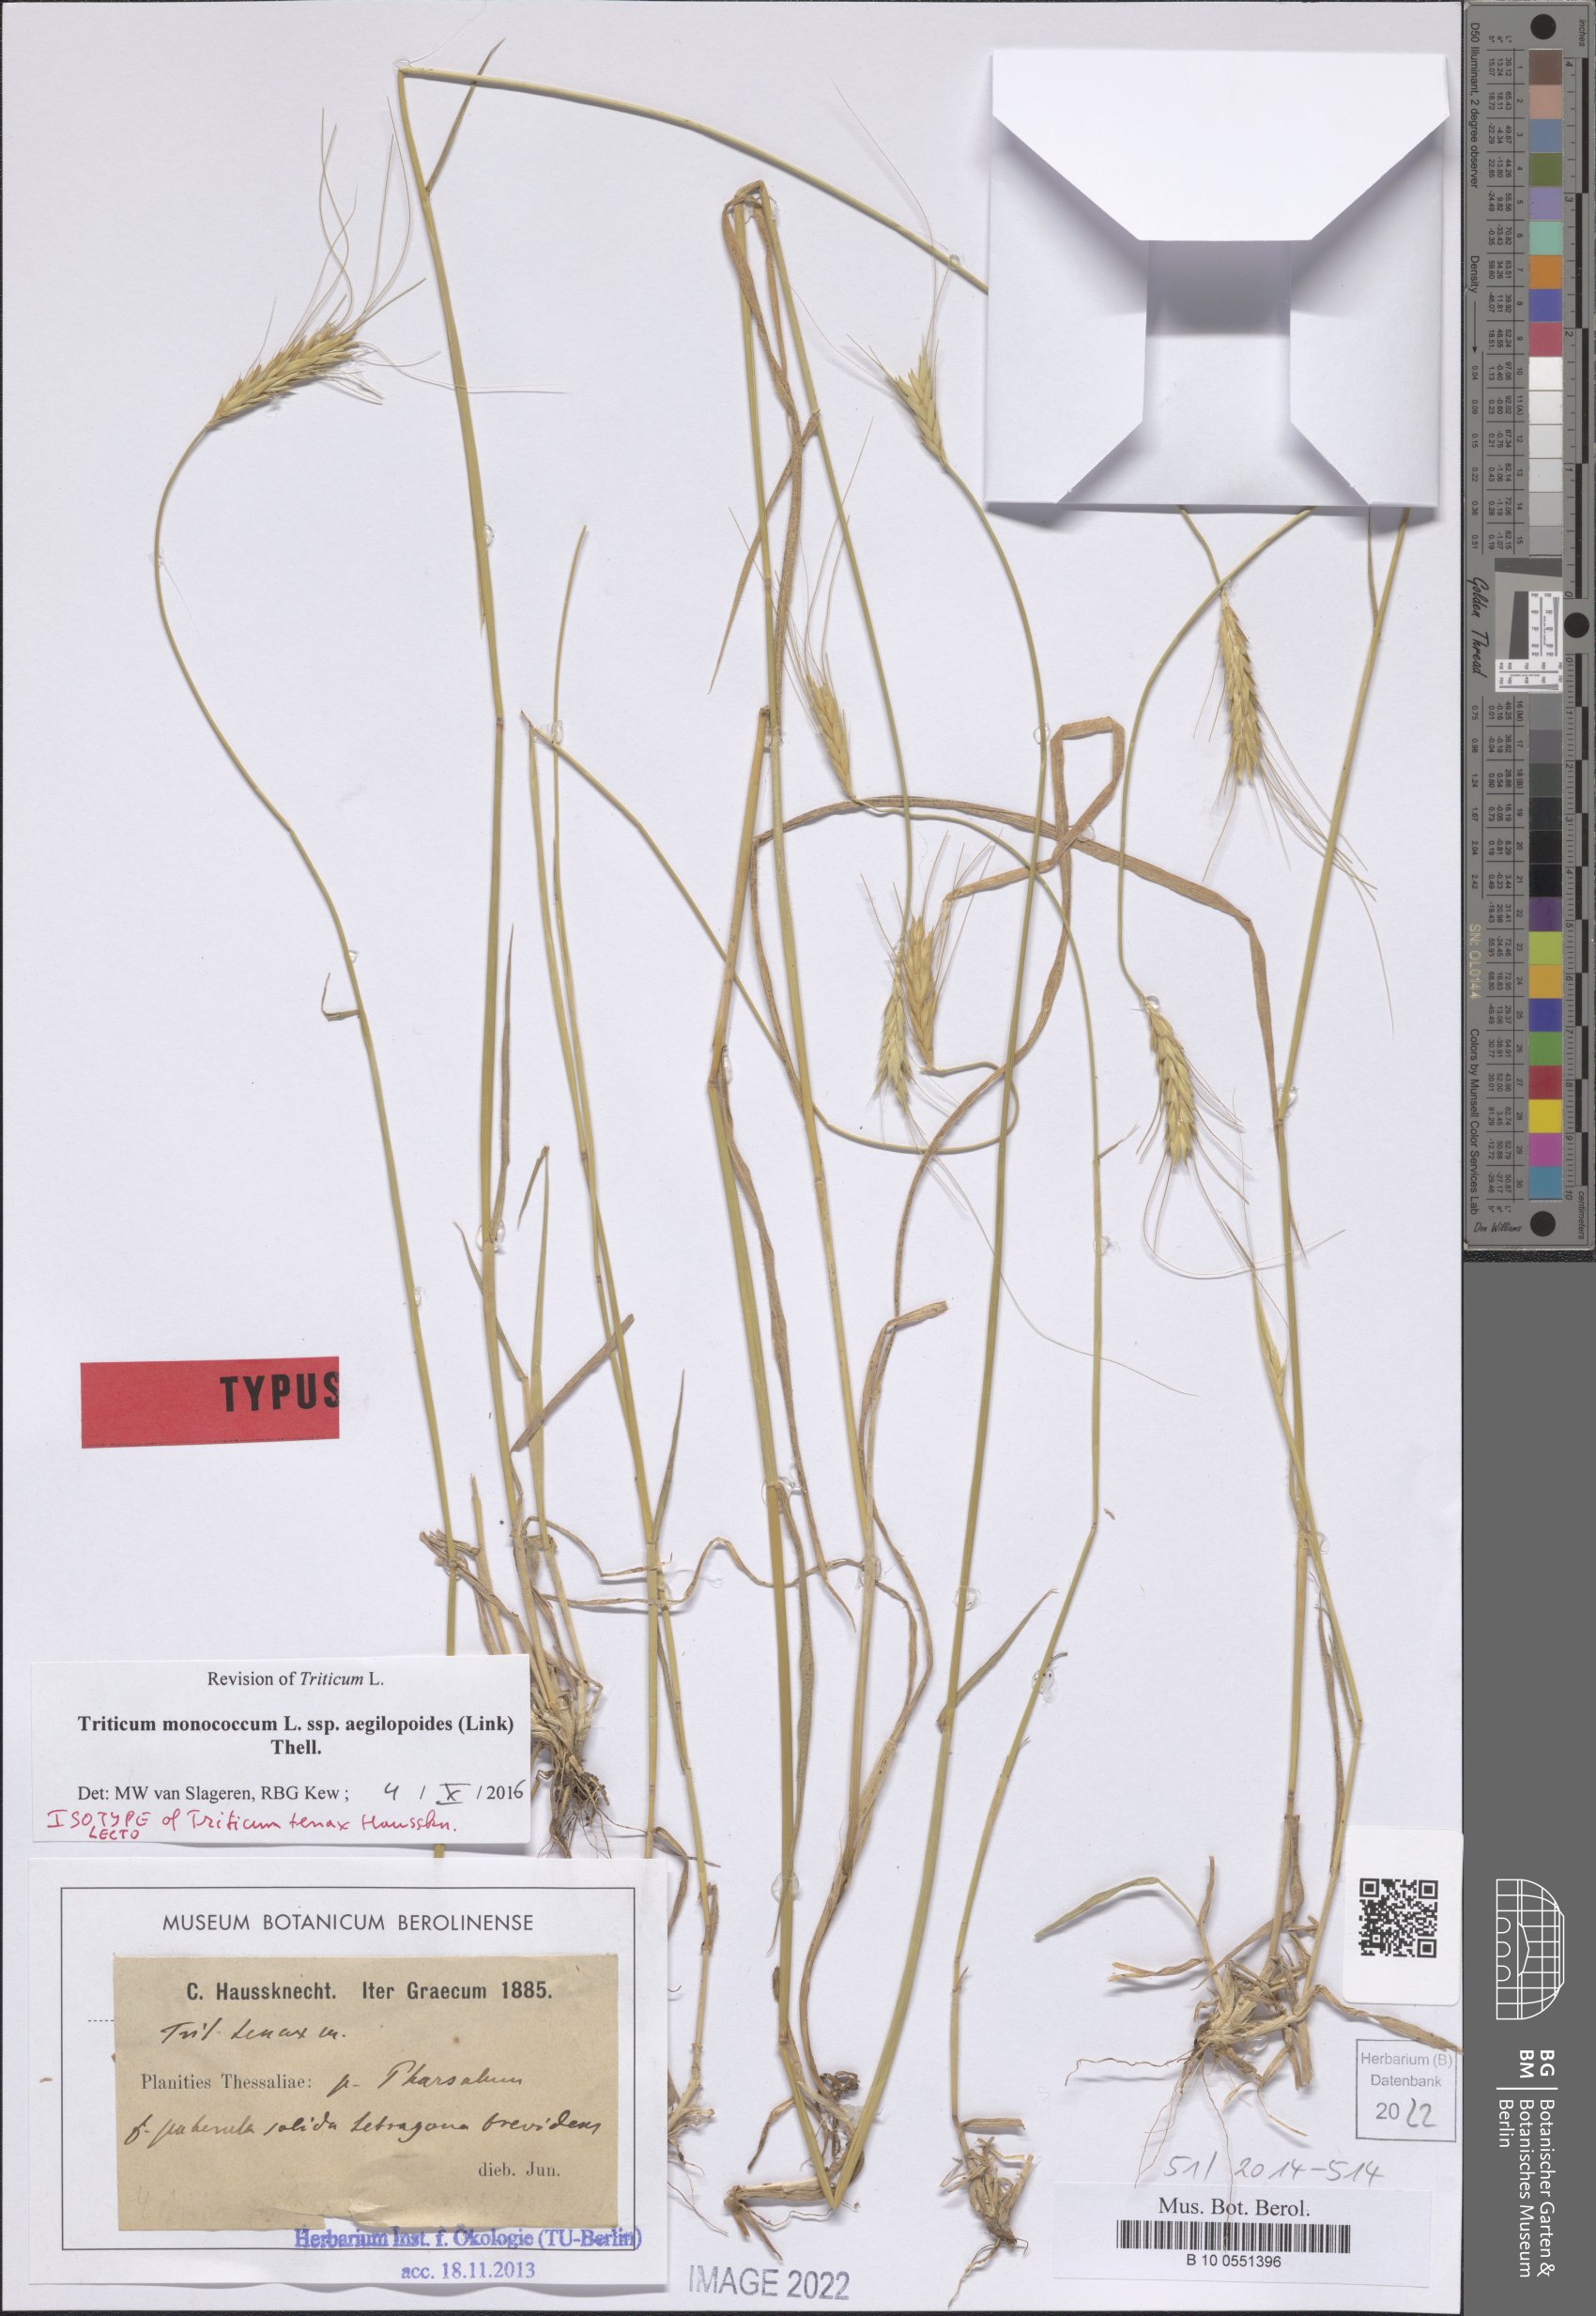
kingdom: Plantae
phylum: Tracheophyta
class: Liliopsida
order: Poales
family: Poaceae
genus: Triticum
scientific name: Triticum monococcum
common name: Einkorn
